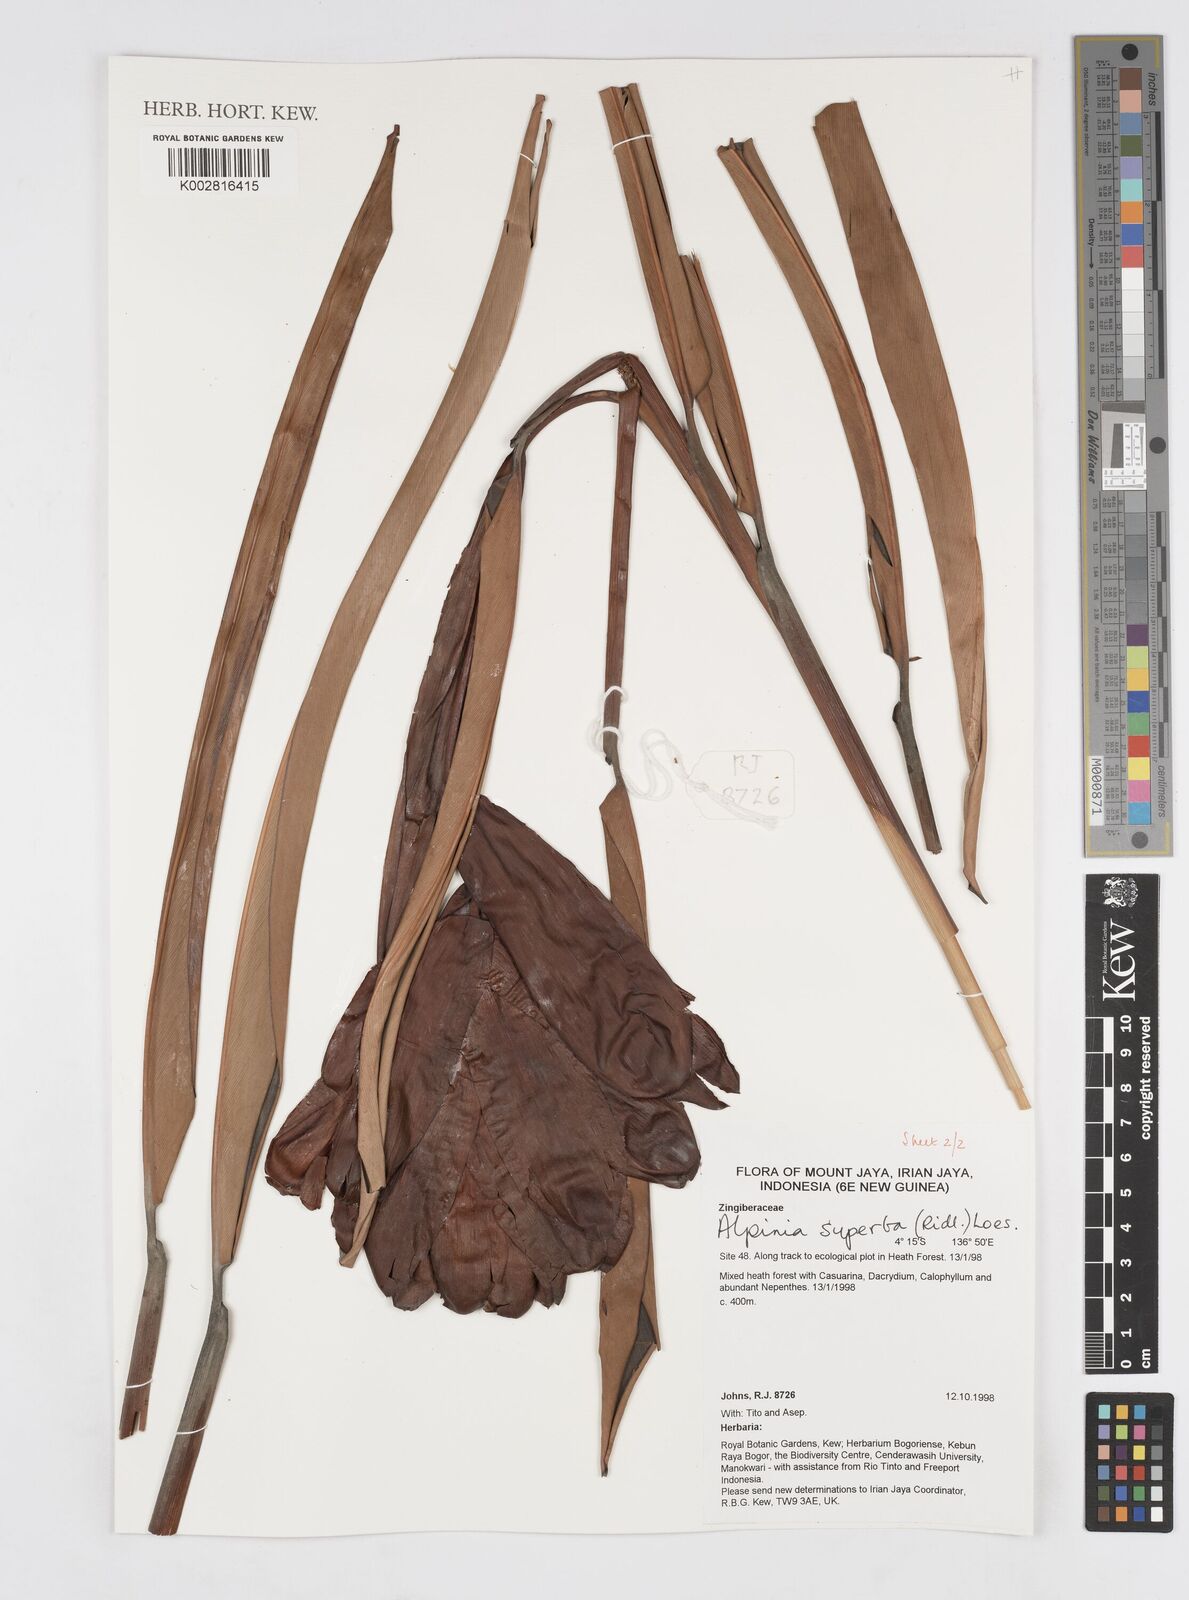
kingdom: Plantae
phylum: Tracheophyta
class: Liliopsida
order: Zingiberales
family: Zingiberaceae
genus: Alpinia
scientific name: Alpinia superba
